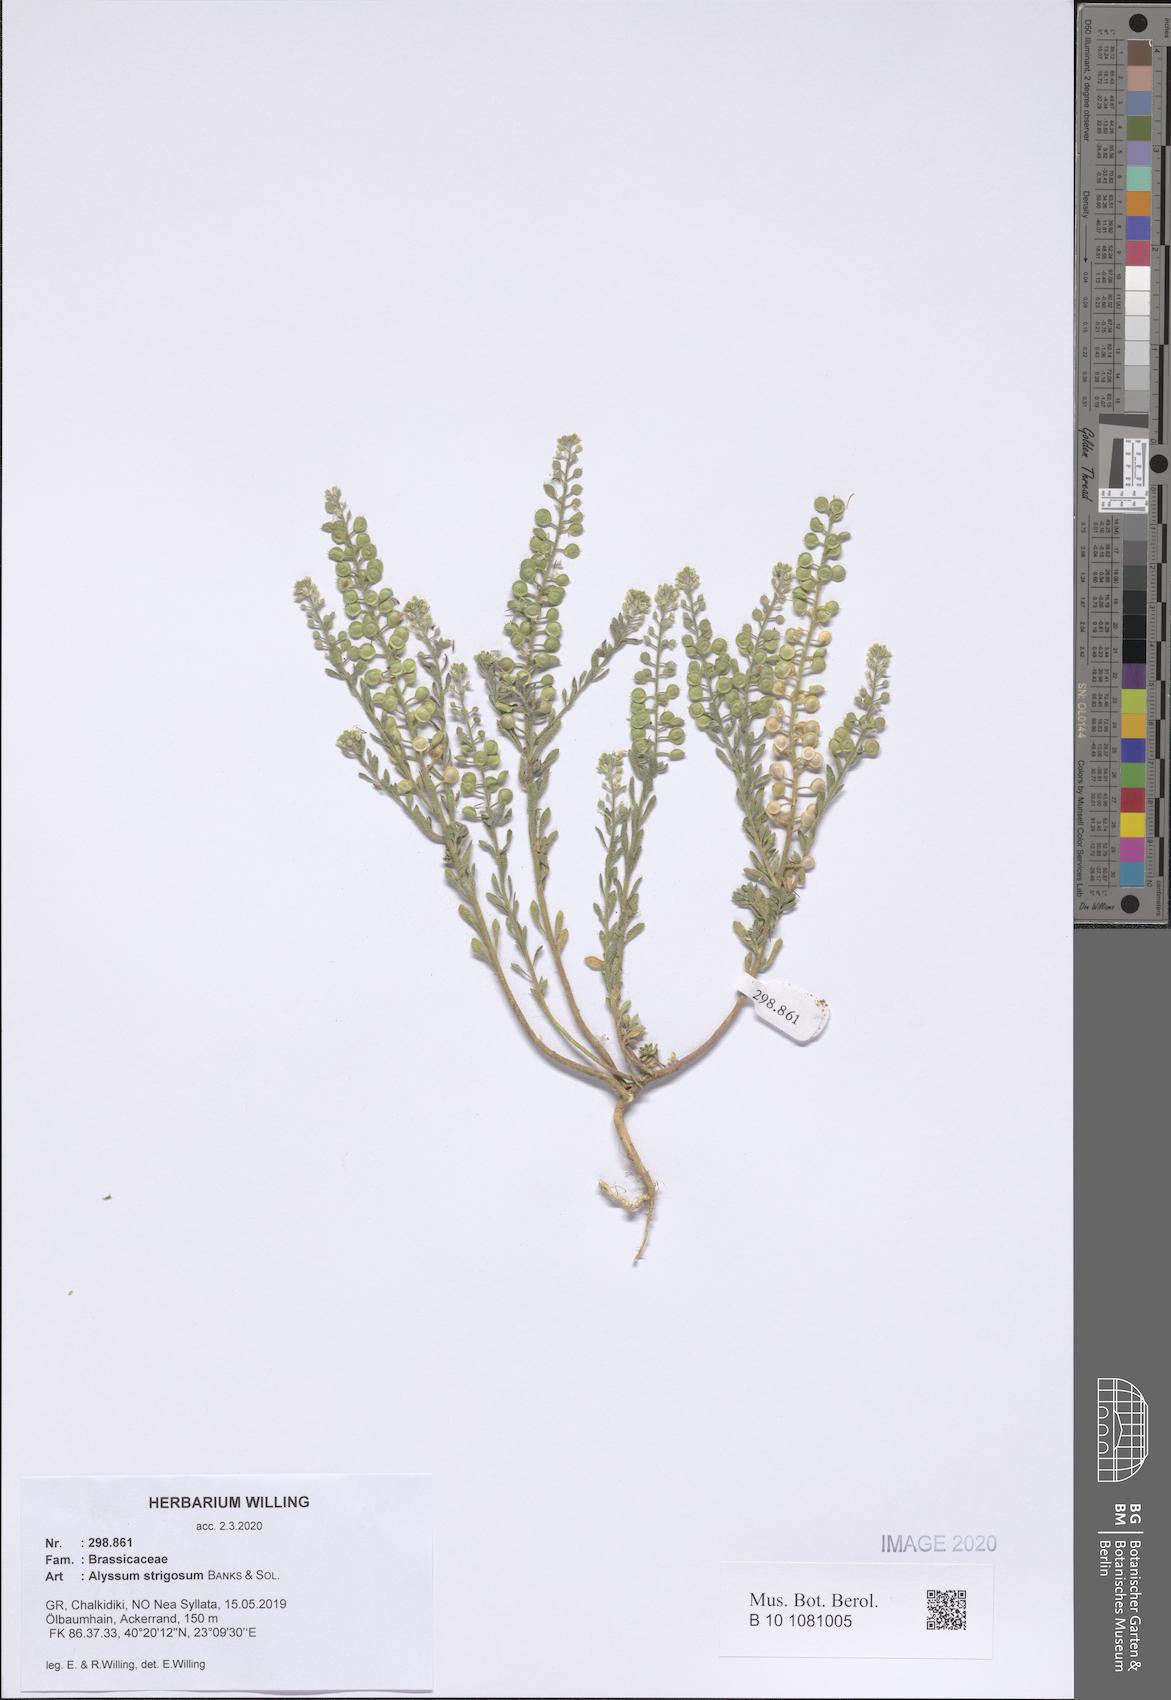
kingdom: Plantae
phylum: Tracheophyta
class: Magnoliopsida
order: Brassicales
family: Brassicaceae
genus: Alyssum
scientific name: Alyssum strigosum
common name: Alyssum
